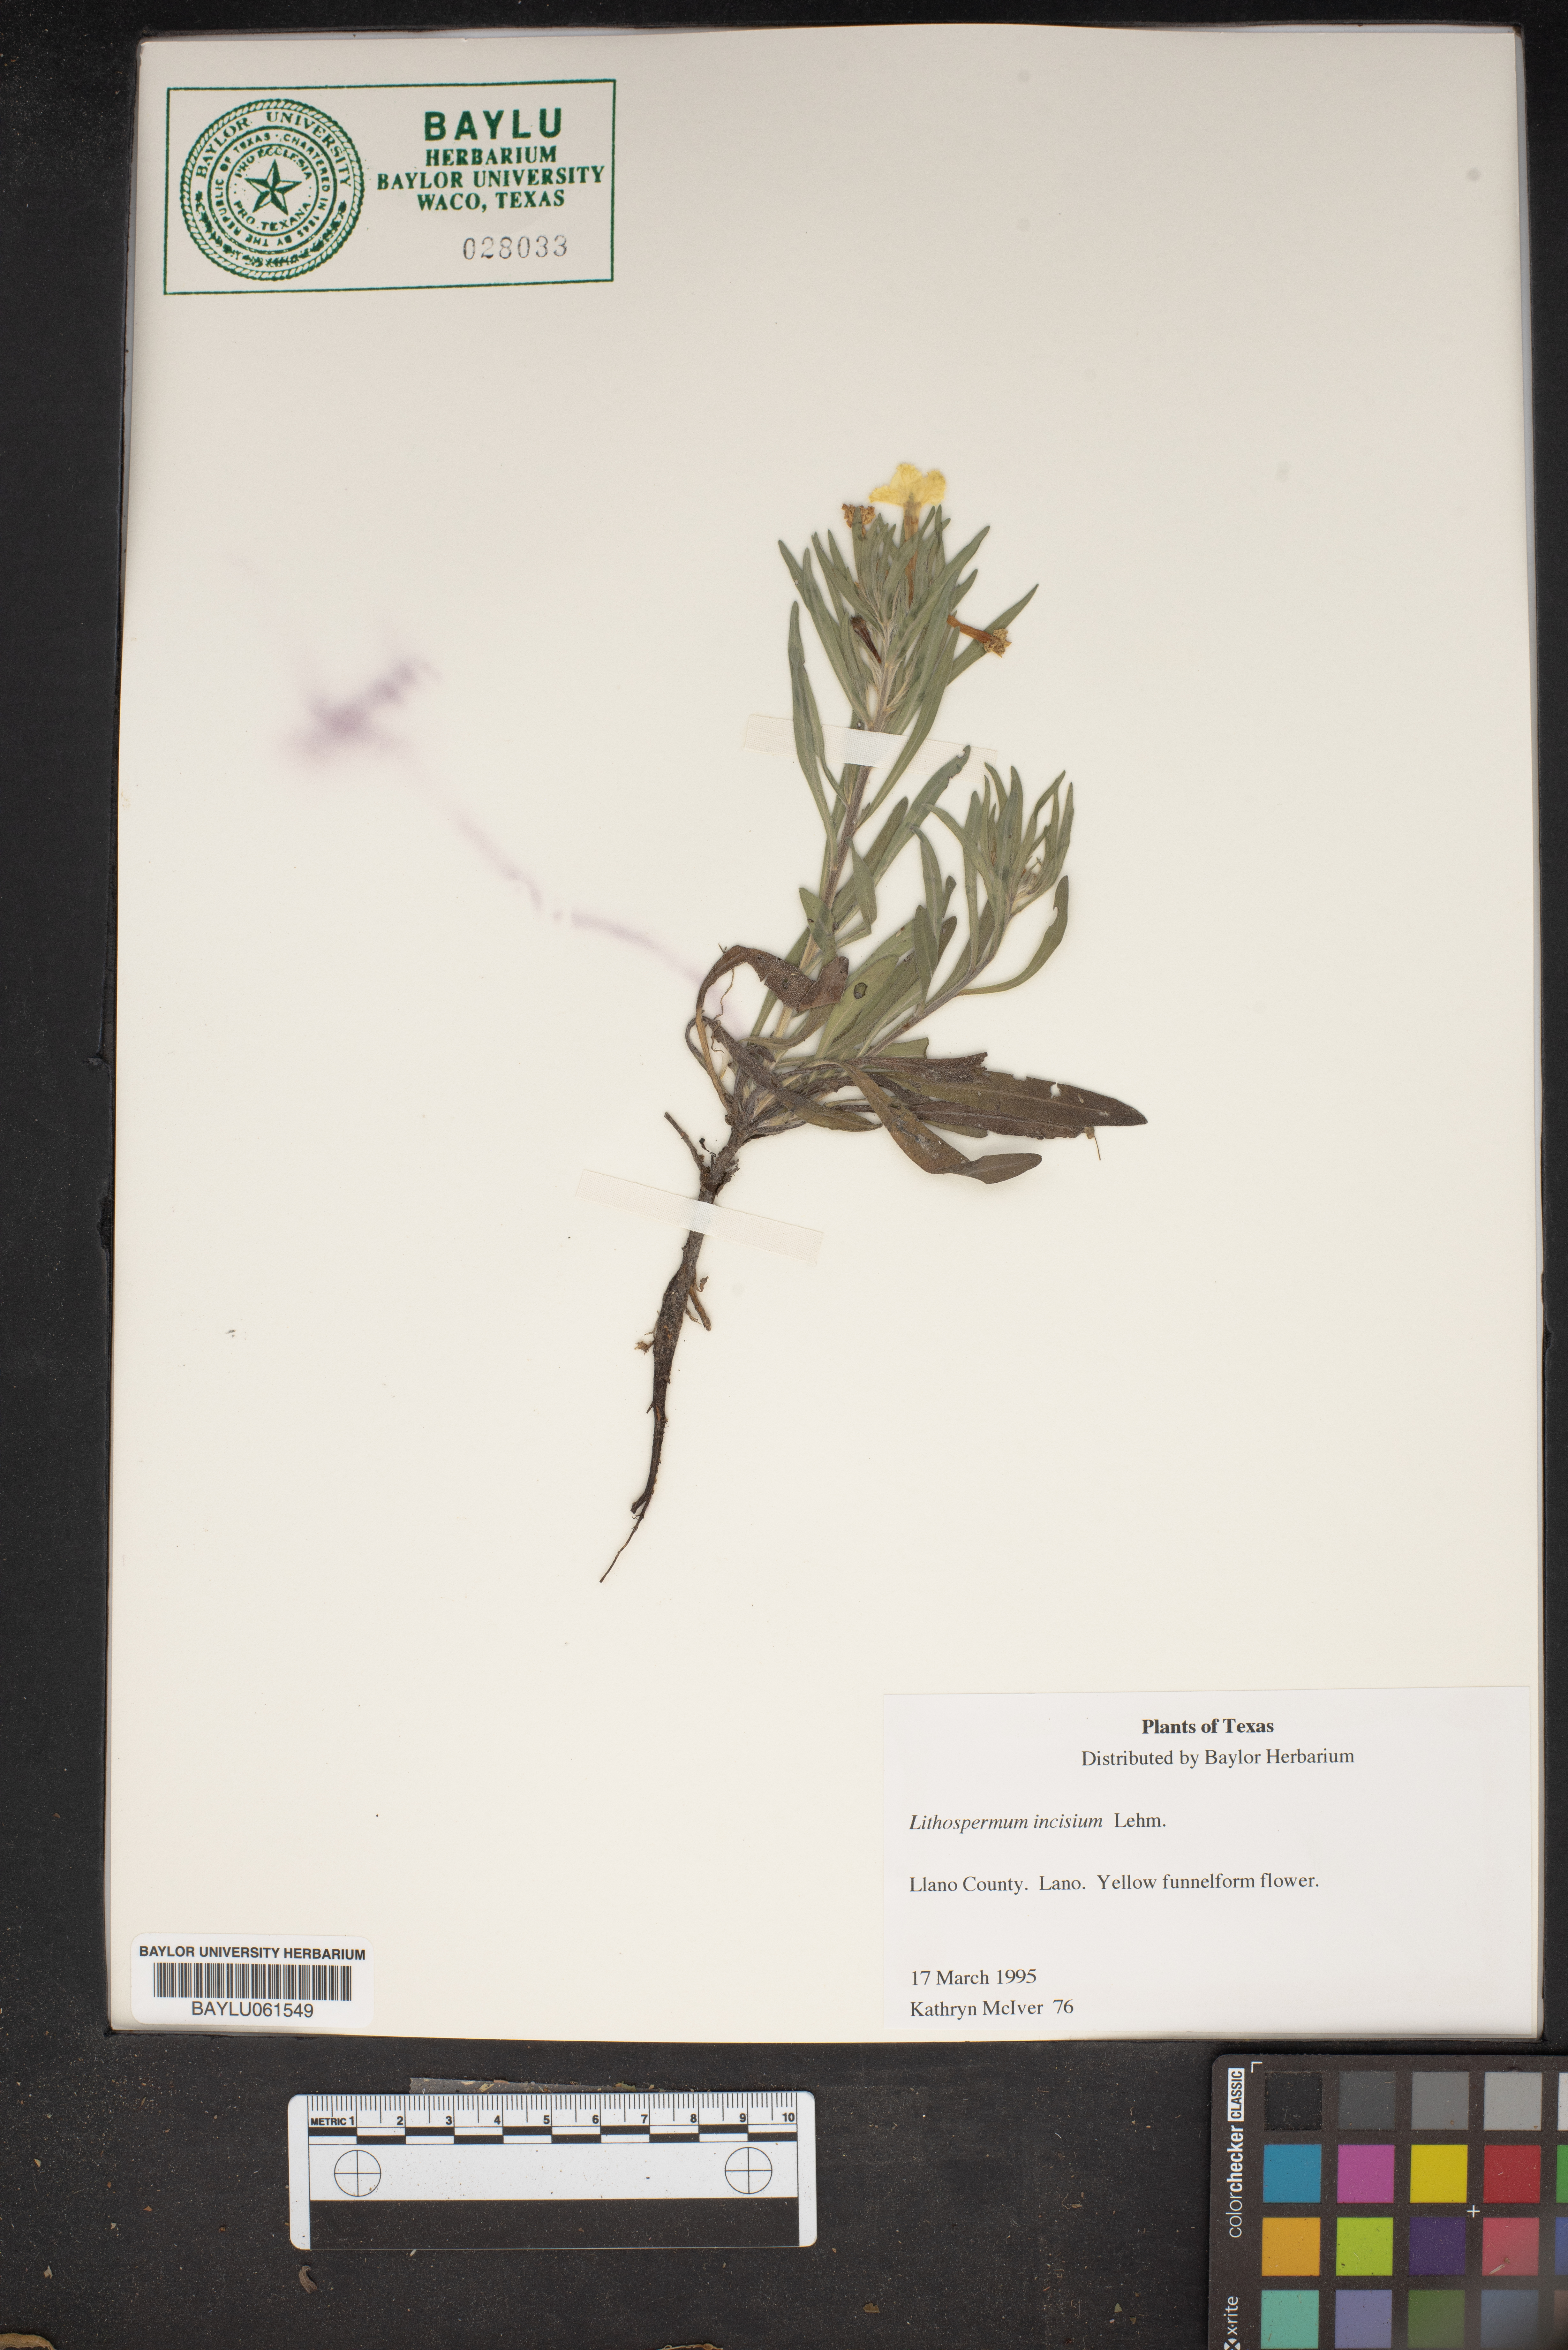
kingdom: Plantae
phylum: Tracheophyta
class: Magnoliopsida
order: Boraginales
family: Boraginaceae
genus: Lithospermum
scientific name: Lithospermum incisum
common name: Fringed gromwell
